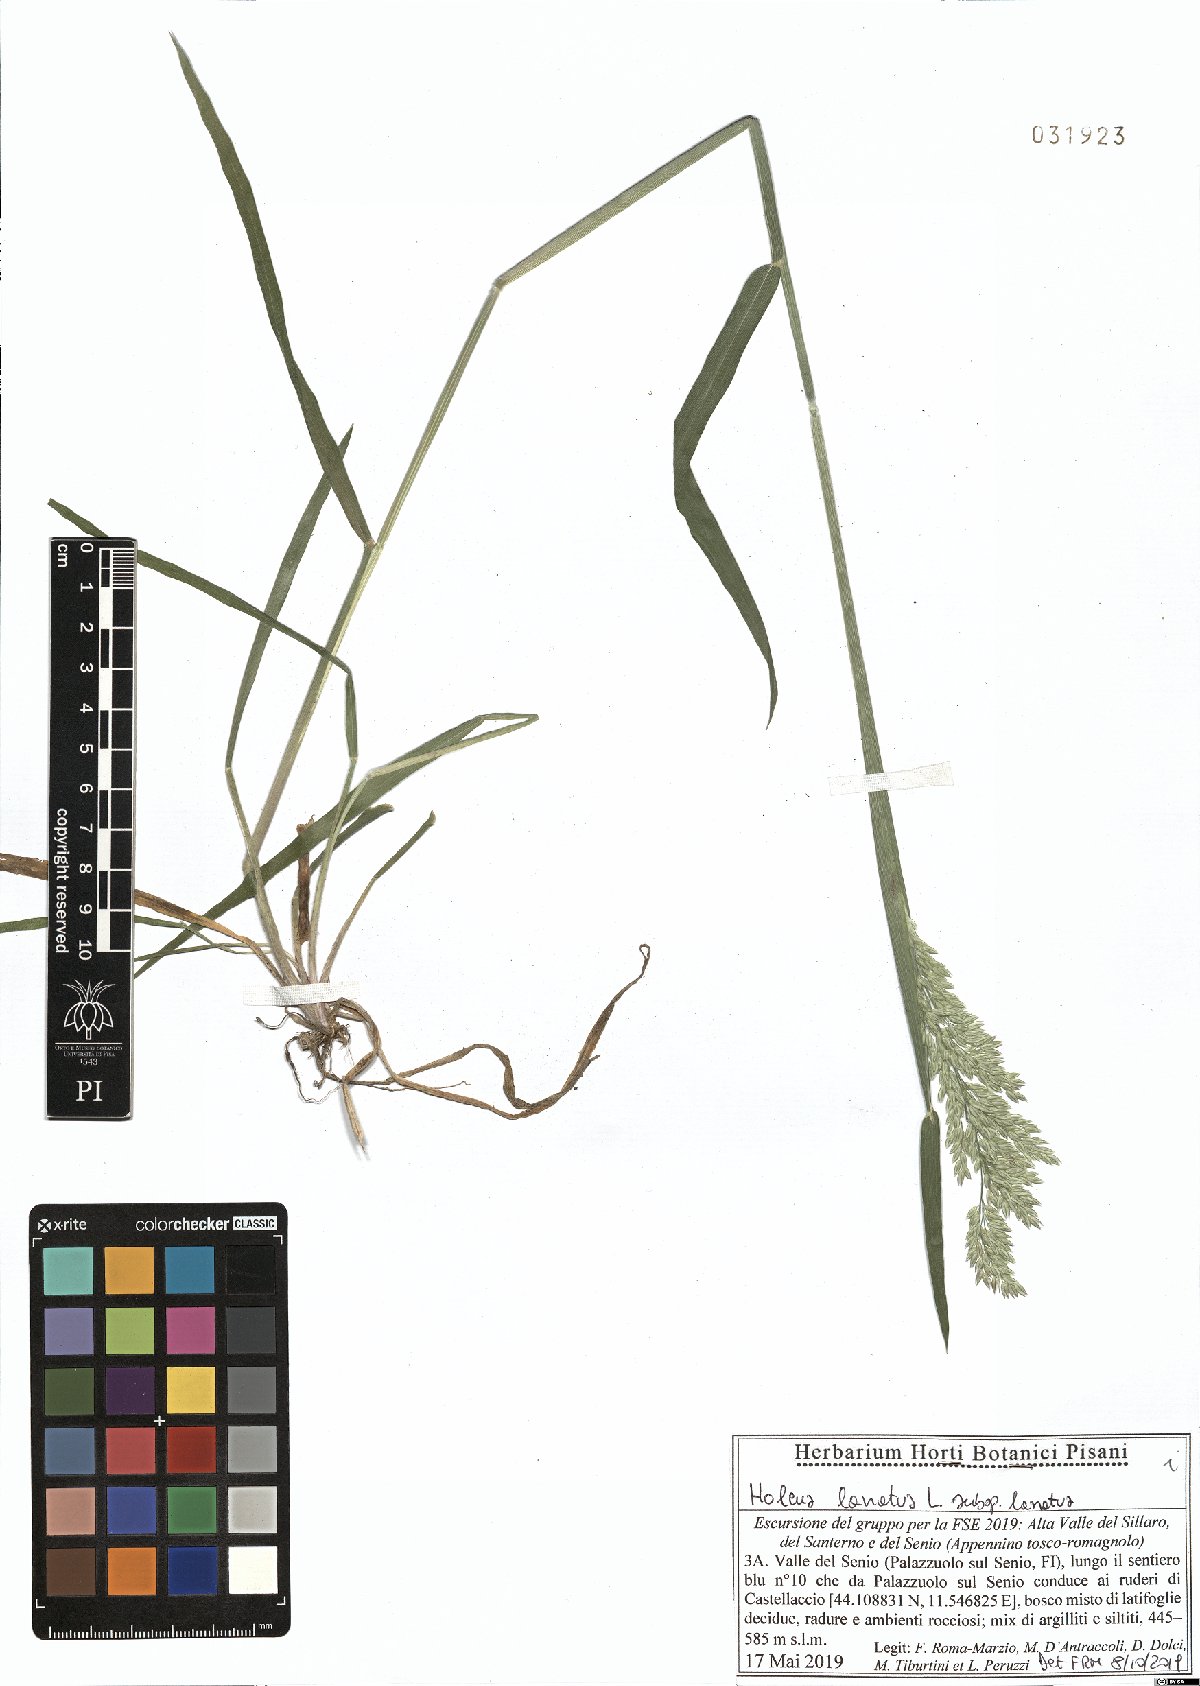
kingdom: Plantae
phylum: Tracheophyta
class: Liliopsida
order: Poales
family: Poaceae
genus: Holcus
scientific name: Holcus lanatus
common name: Yorkshire-fog
